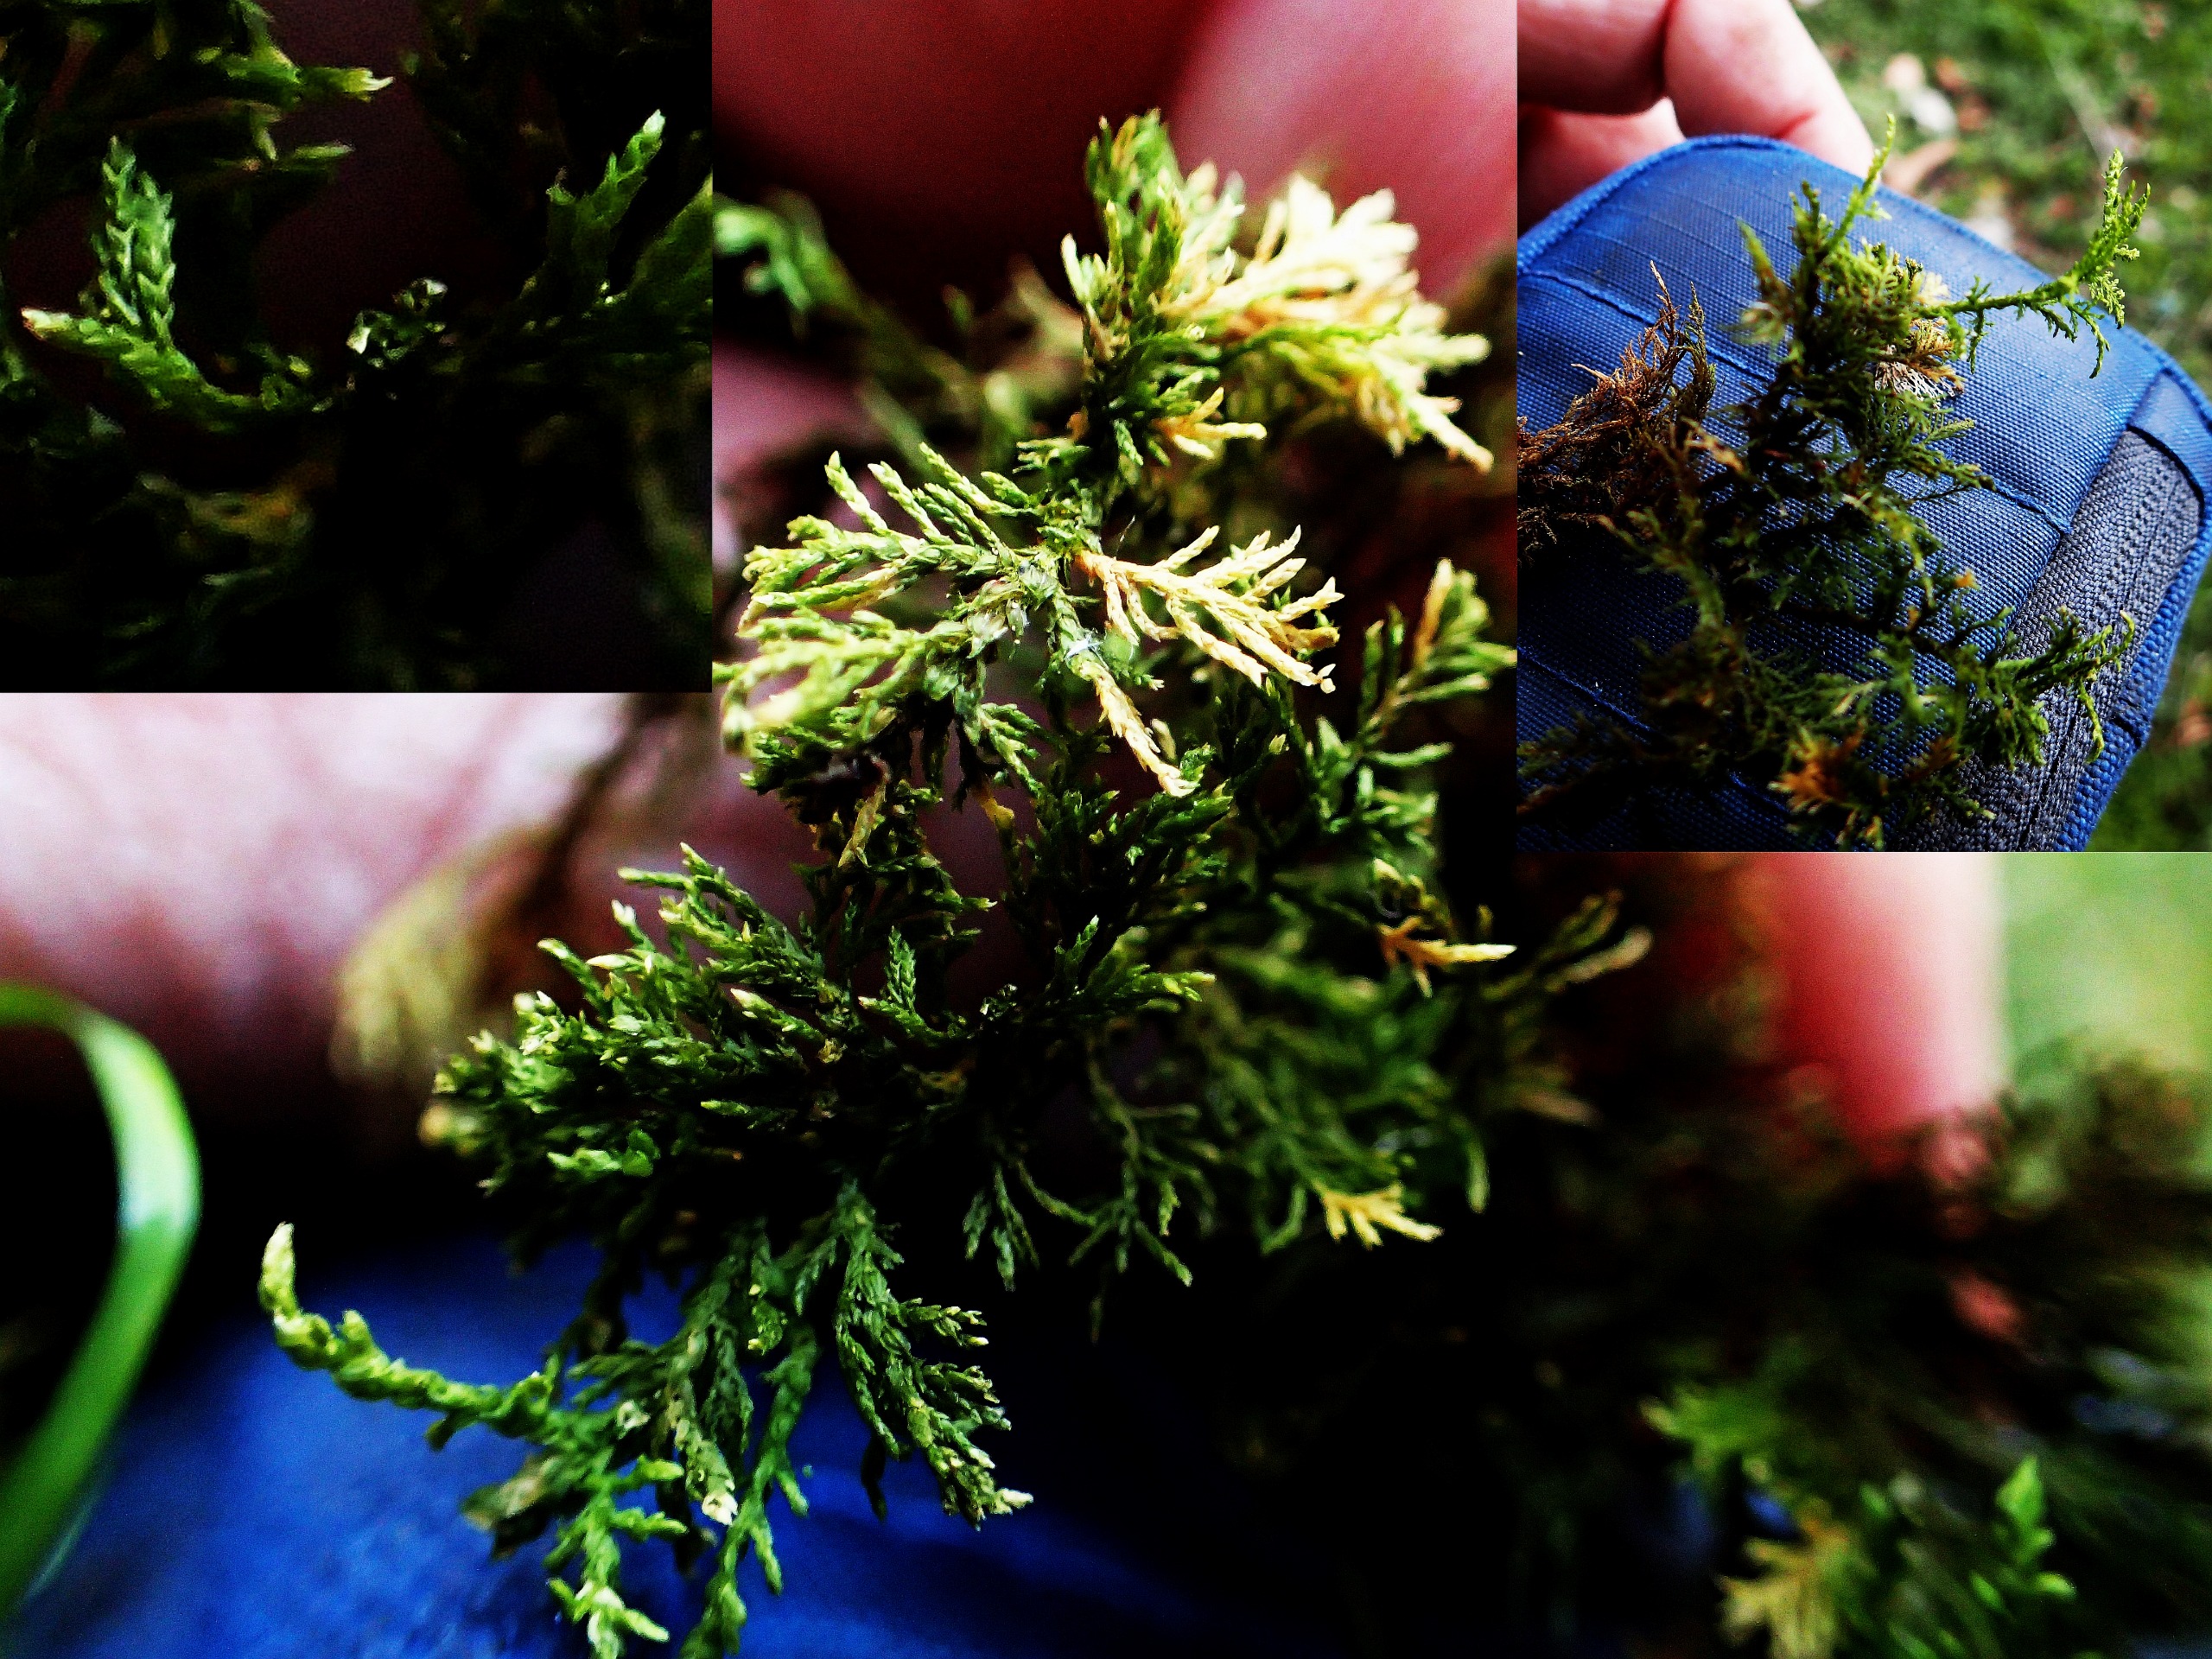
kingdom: Plantae
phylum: Bryophyta
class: Bryopsida
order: Hypnales
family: Thuidiaceae
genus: Thuidium
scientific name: Thuidium tamariscinum
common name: Pryd-bregnemos
